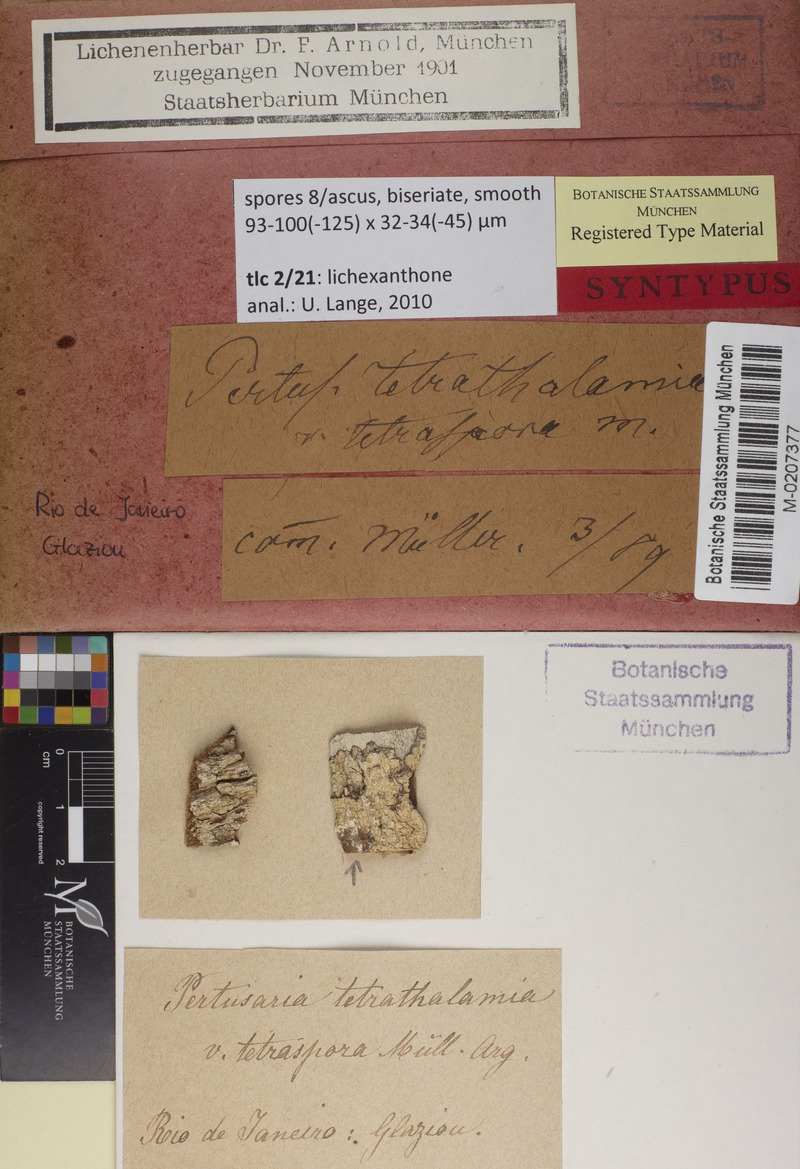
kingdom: Fungi
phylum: Ascomycota
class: Lecanoromycetes
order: Pertusariales
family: Pertusariaceae
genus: Pertusaria
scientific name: Pertusaria tetrathalamia
